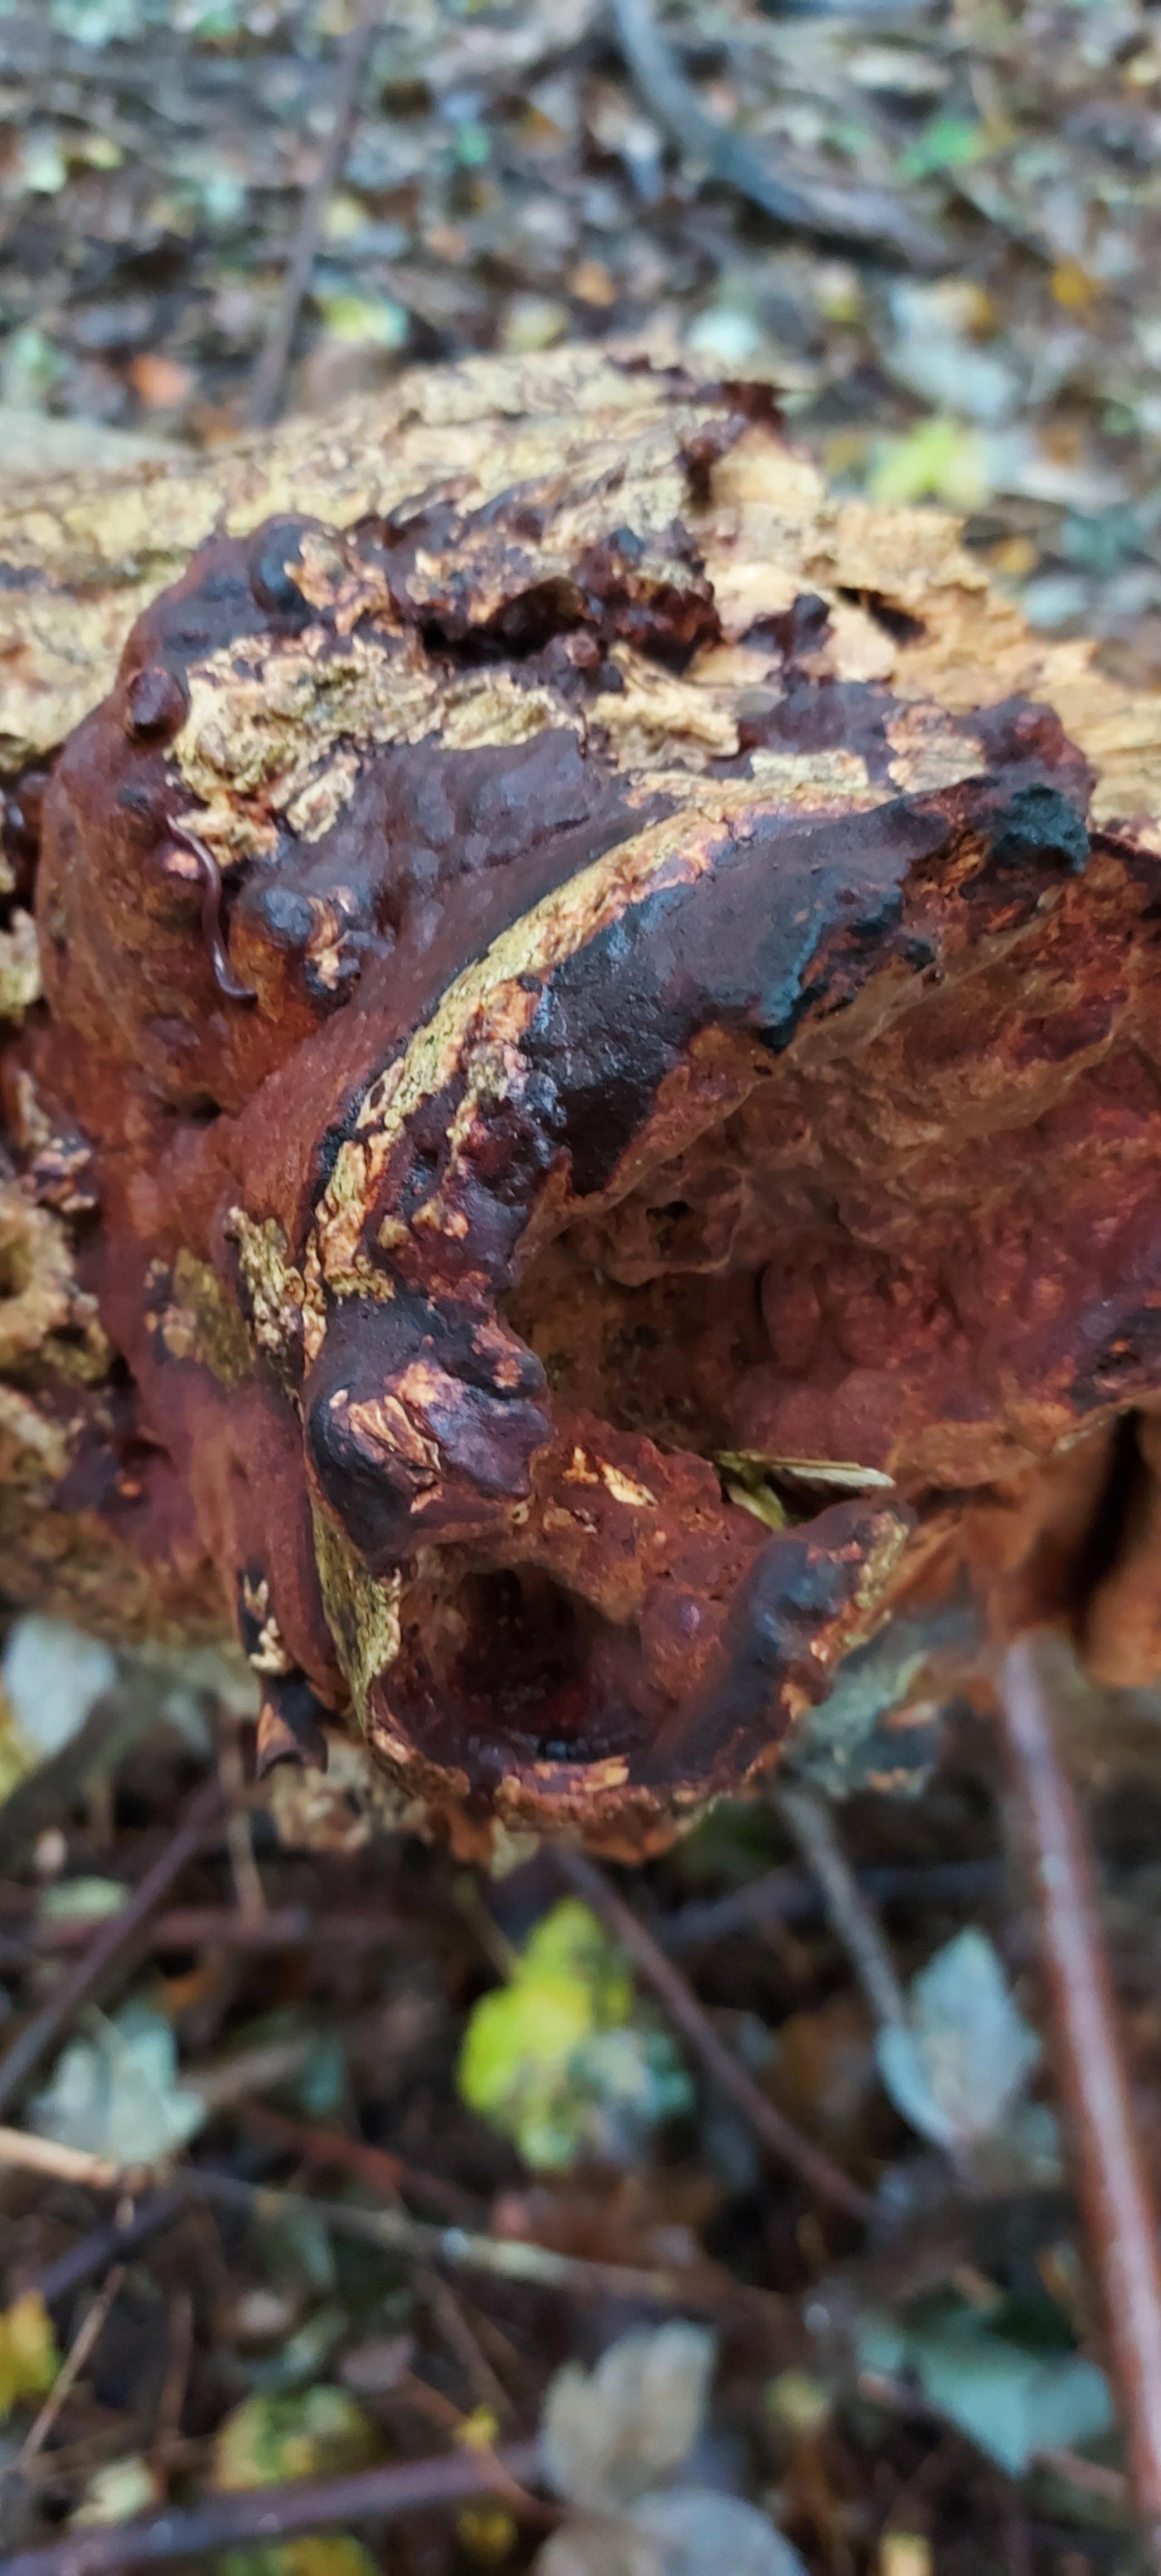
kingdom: Fungi
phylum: Basidiomycota
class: Agaricomycetes
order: Hymenochaetales
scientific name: Hymenochaetales
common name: børstesvampordenen
